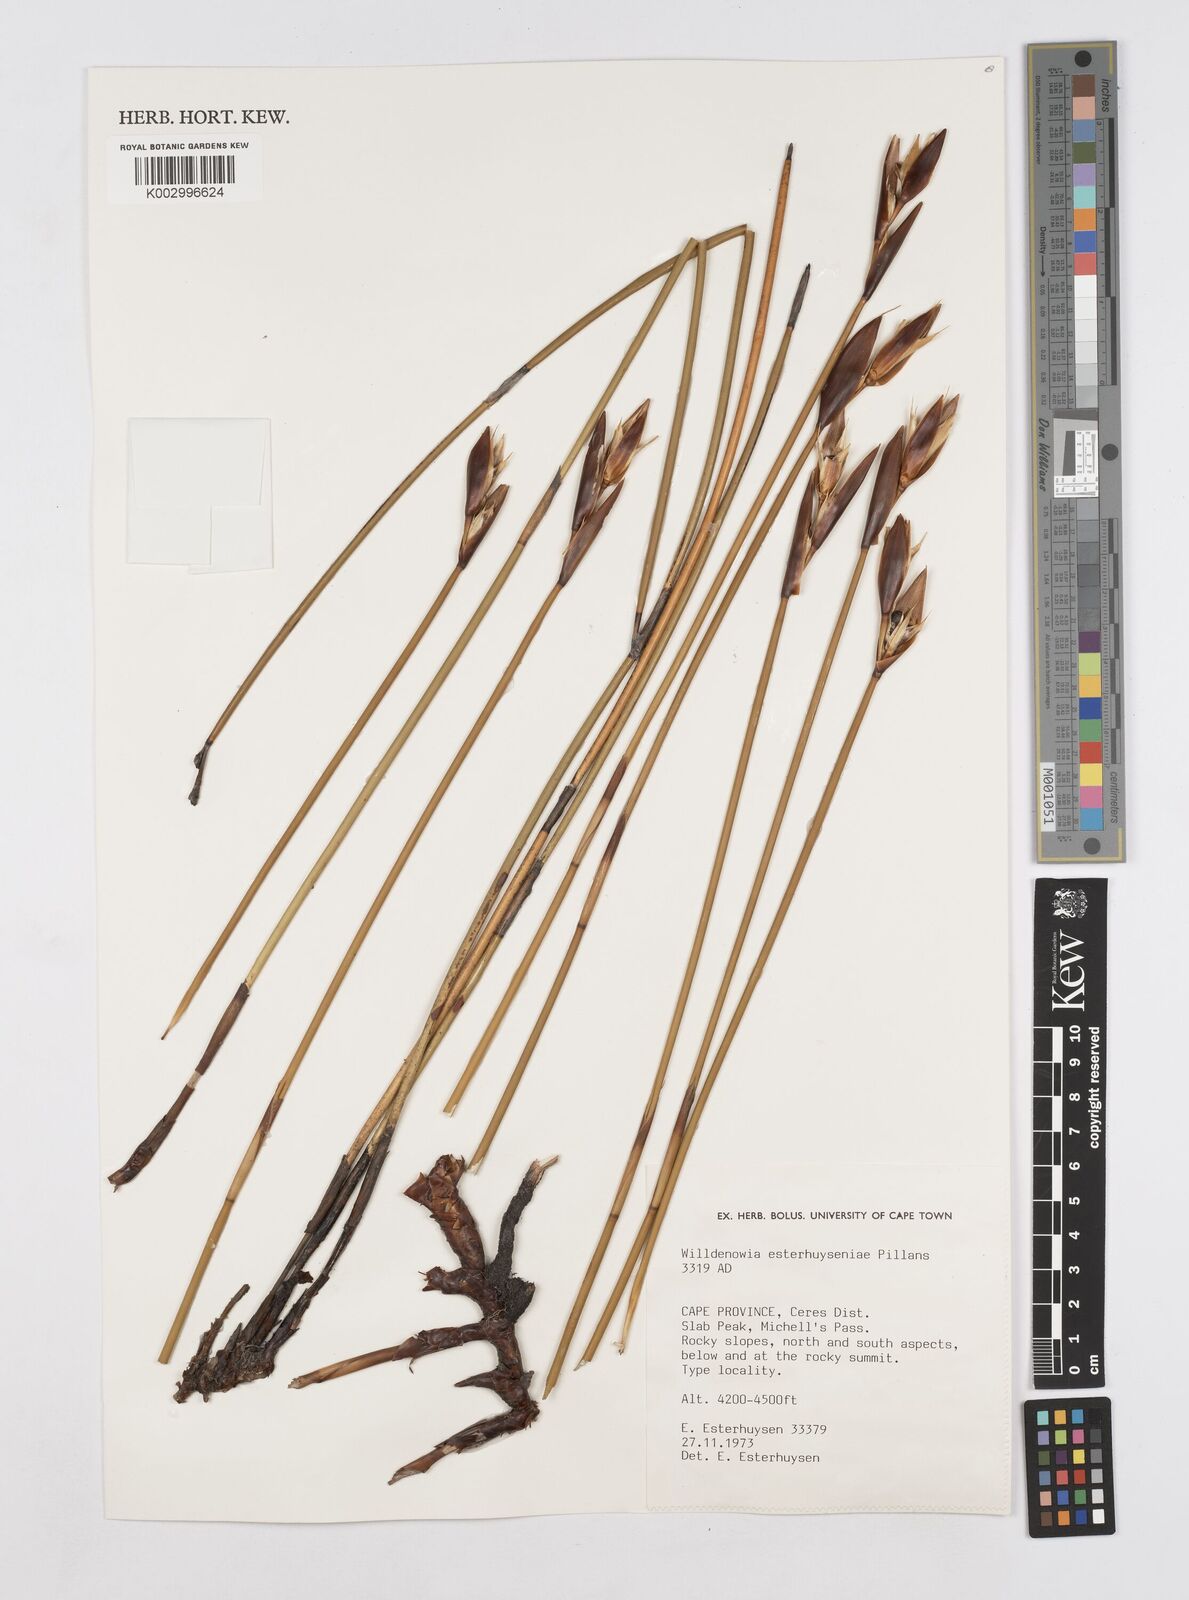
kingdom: Plantae
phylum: Tracheophyta
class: Liliopsida
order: Poales
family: Restionaceae
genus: Ceratocaryum
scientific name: Ceratocaryum fimbriatum
